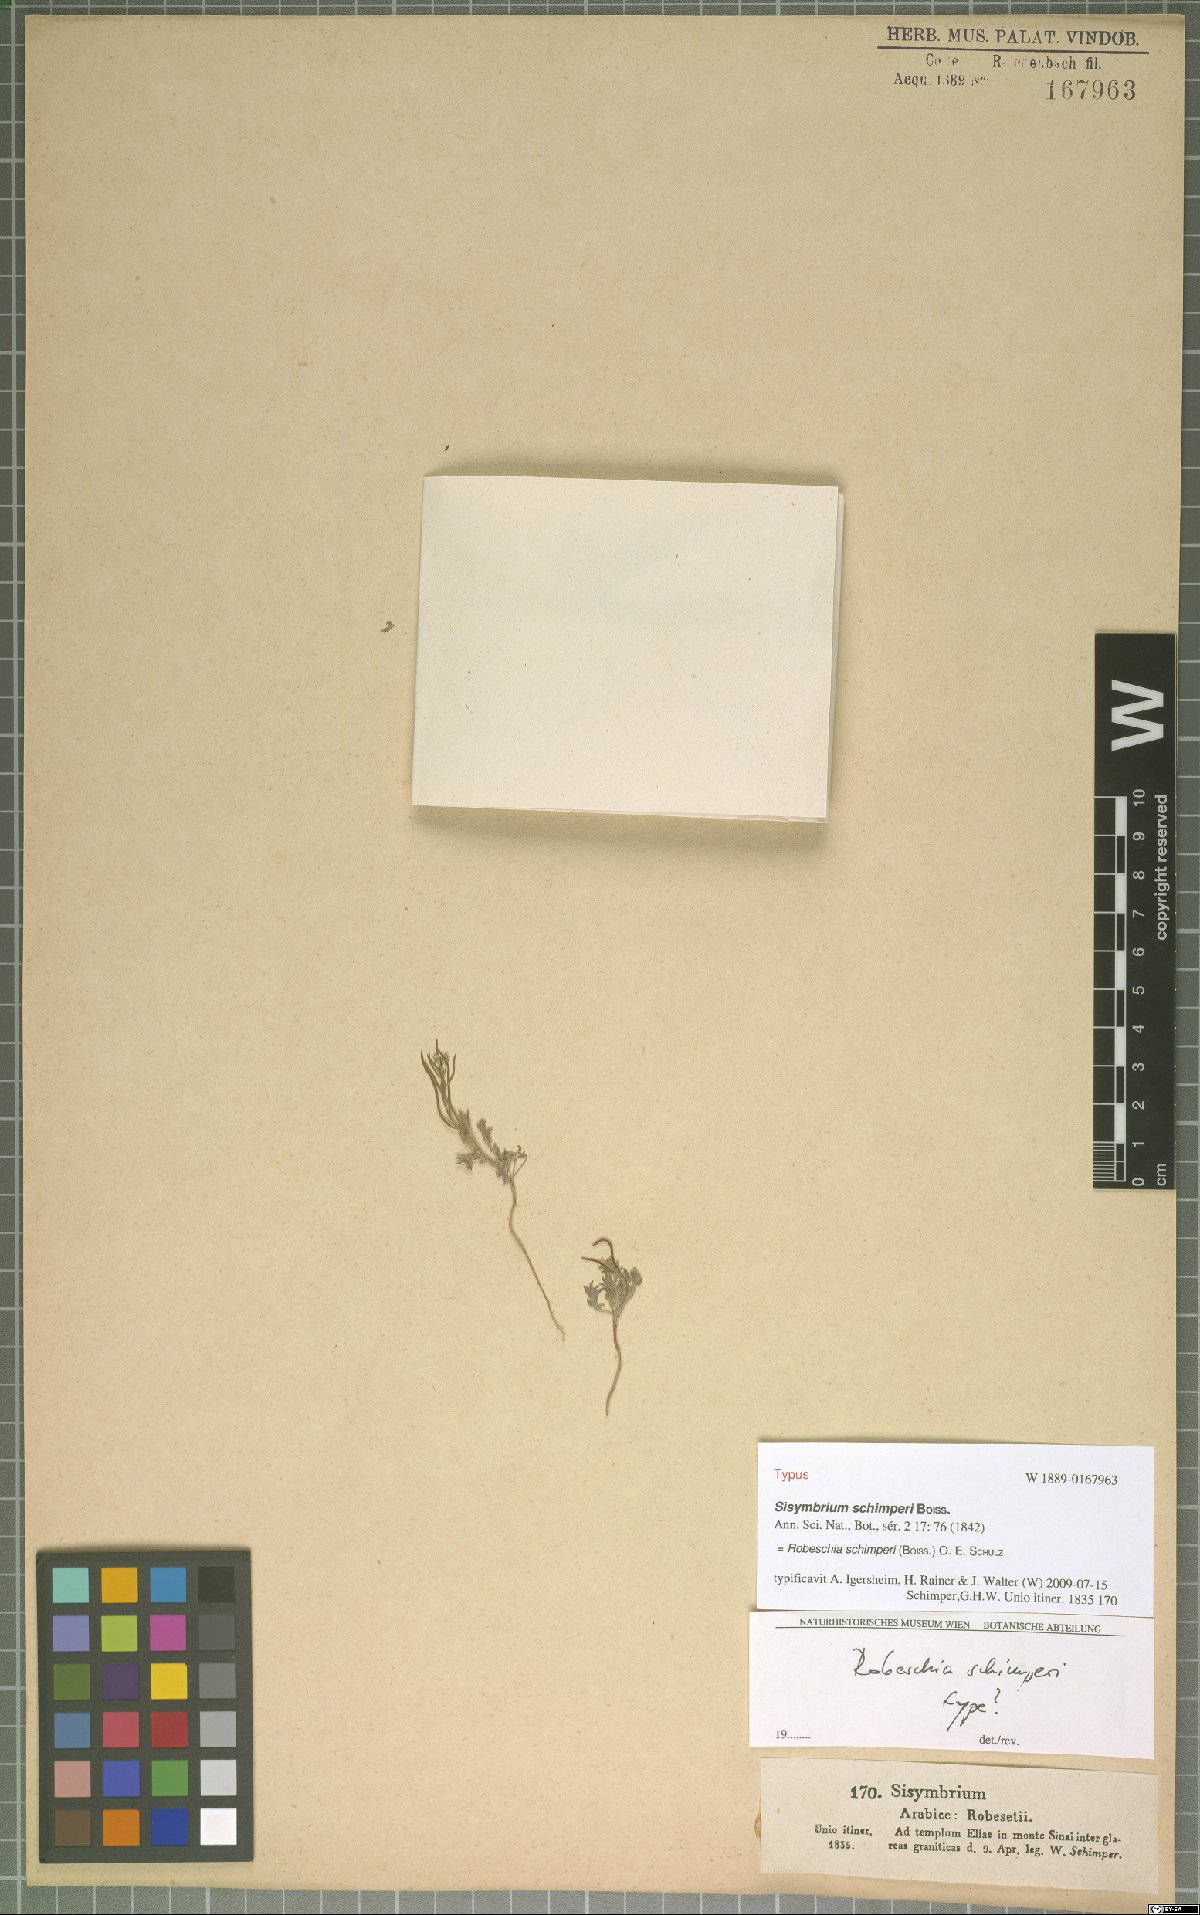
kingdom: Plantae
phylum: Tracheophyta
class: Magnoliopsida
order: Brassicales
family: Brassicaceae
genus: Robeschia
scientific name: Robeschia schimperi
